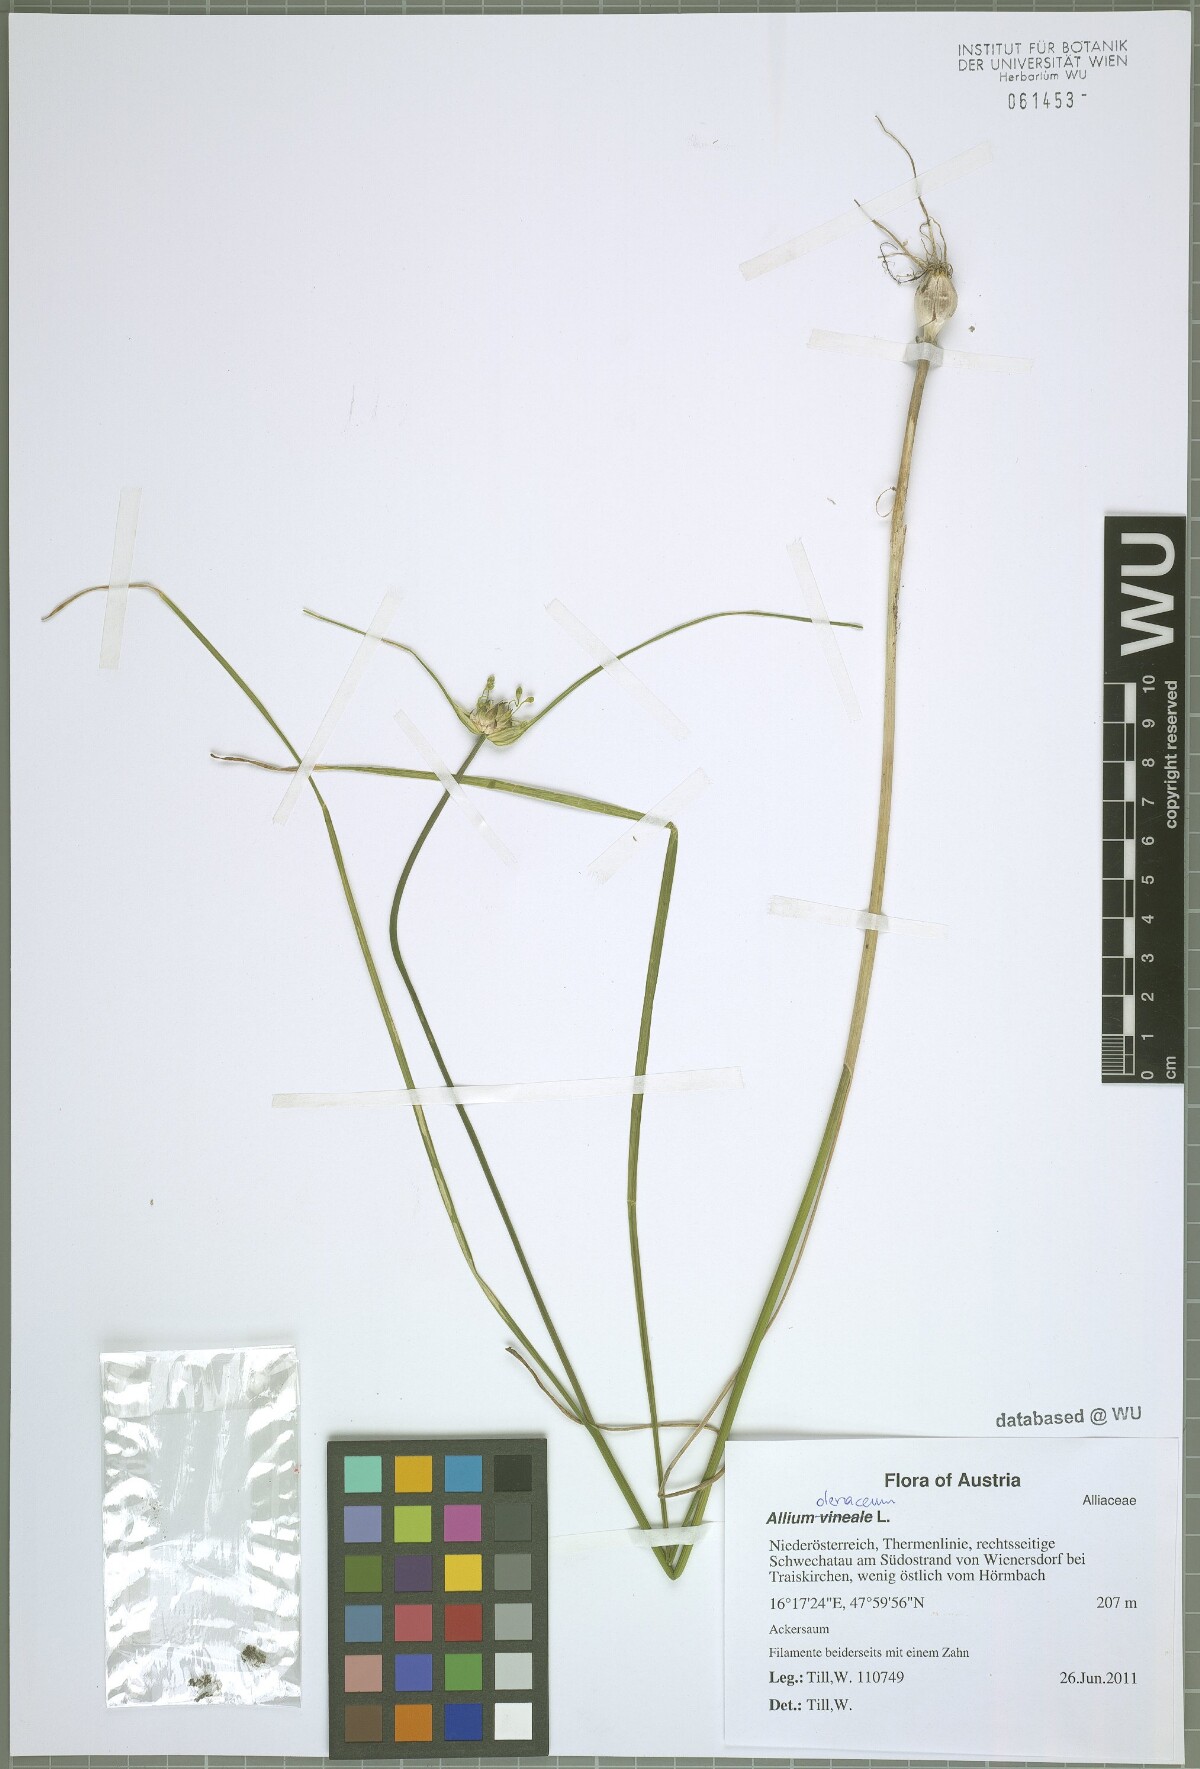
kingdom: Plantae
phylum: Tracheophyta
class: Liliopsida
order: Asparagales
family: Amaryllidaceae
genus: Allium
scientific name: Allium oleraceum
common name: Field garlic
